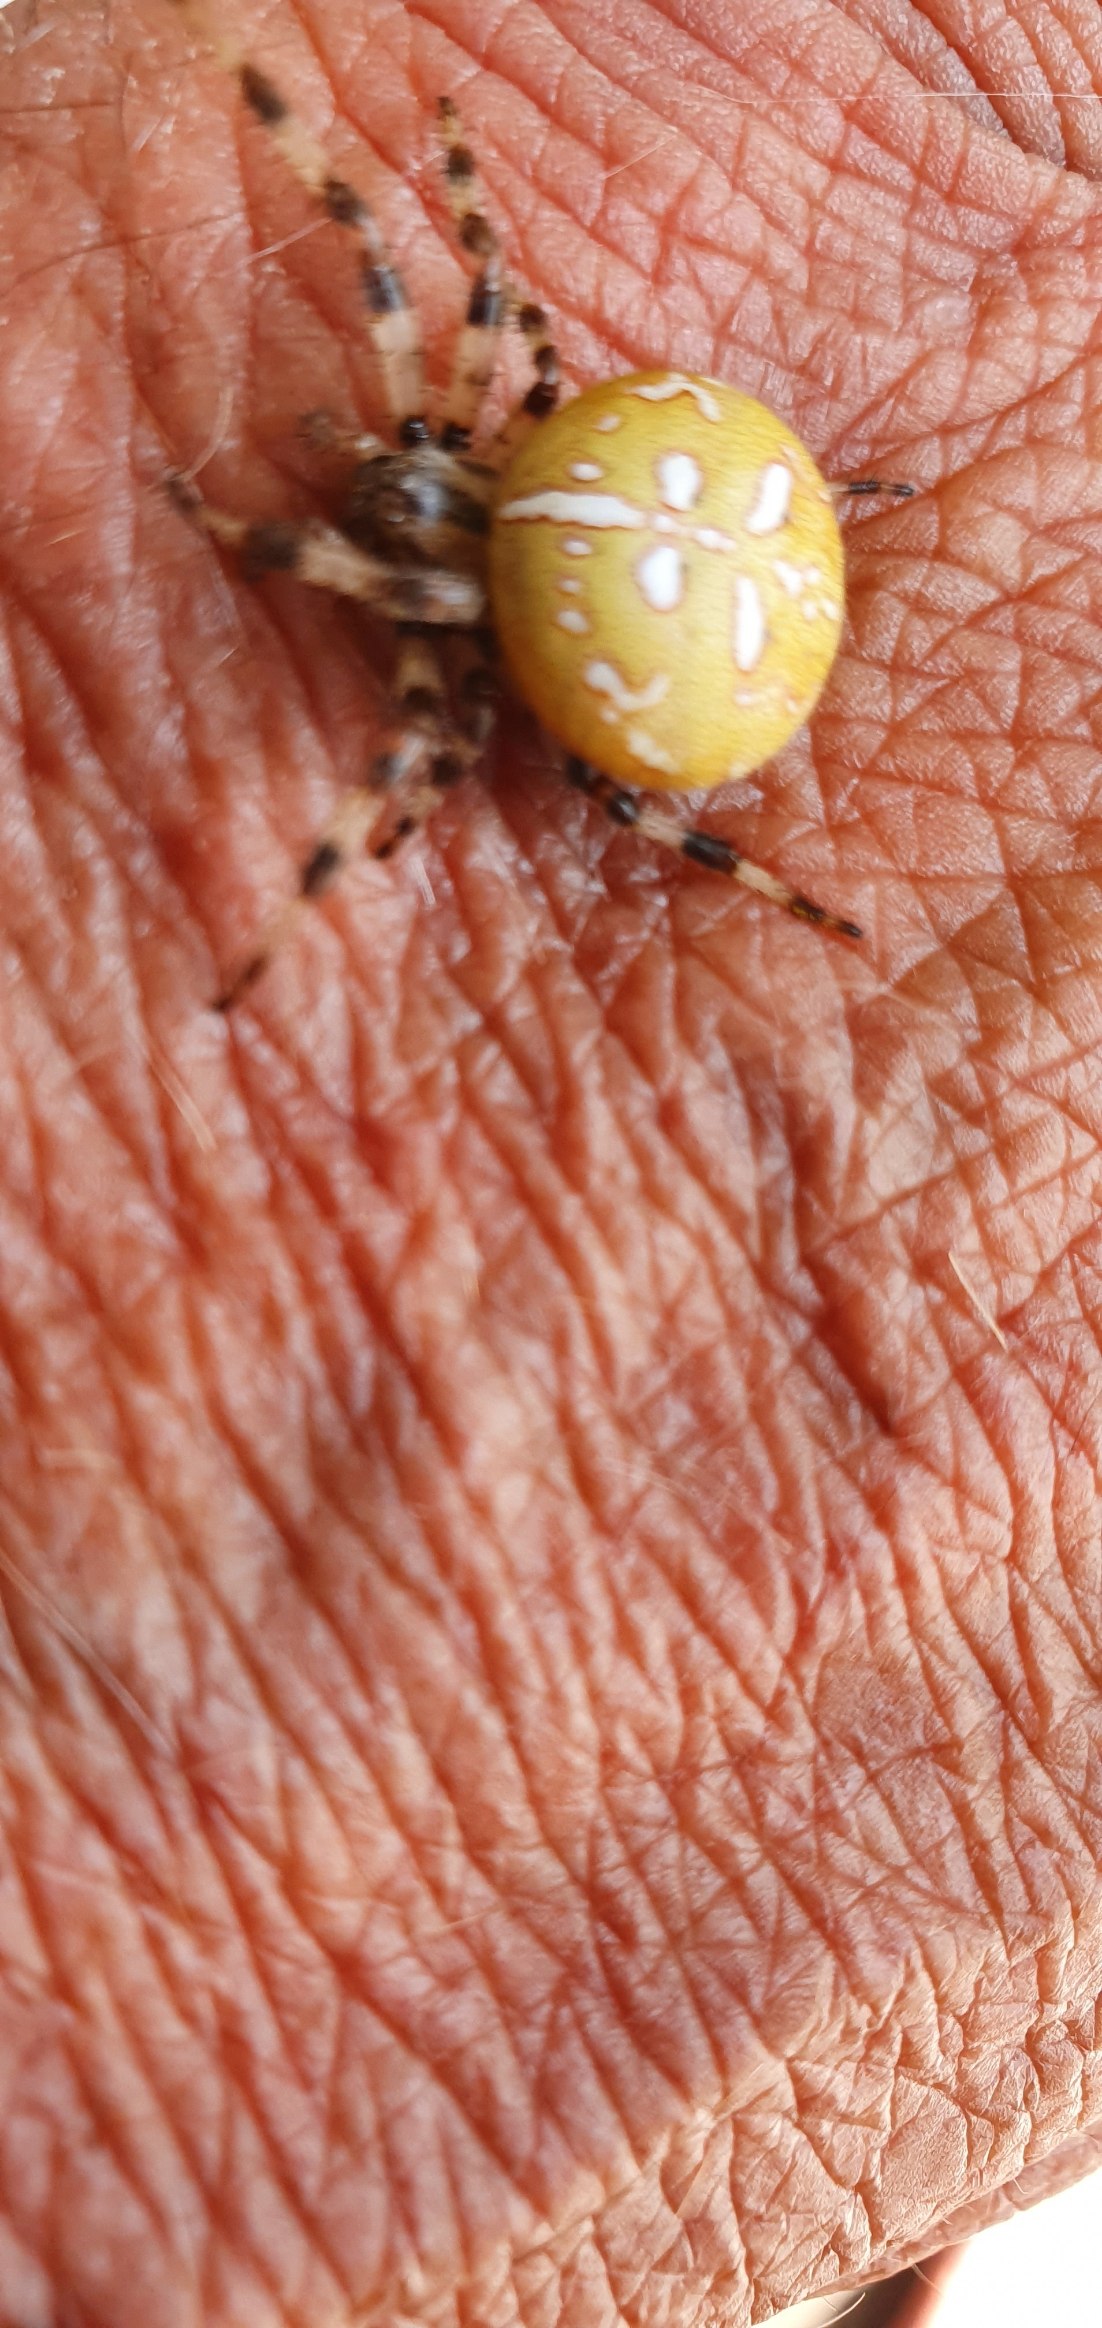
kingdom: Animalia
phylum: Arthropoda
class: Arachnida
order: Araneae
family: Araneidae
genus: Araneus
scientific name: Araneus quadratus
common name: Kvadratedderkop
